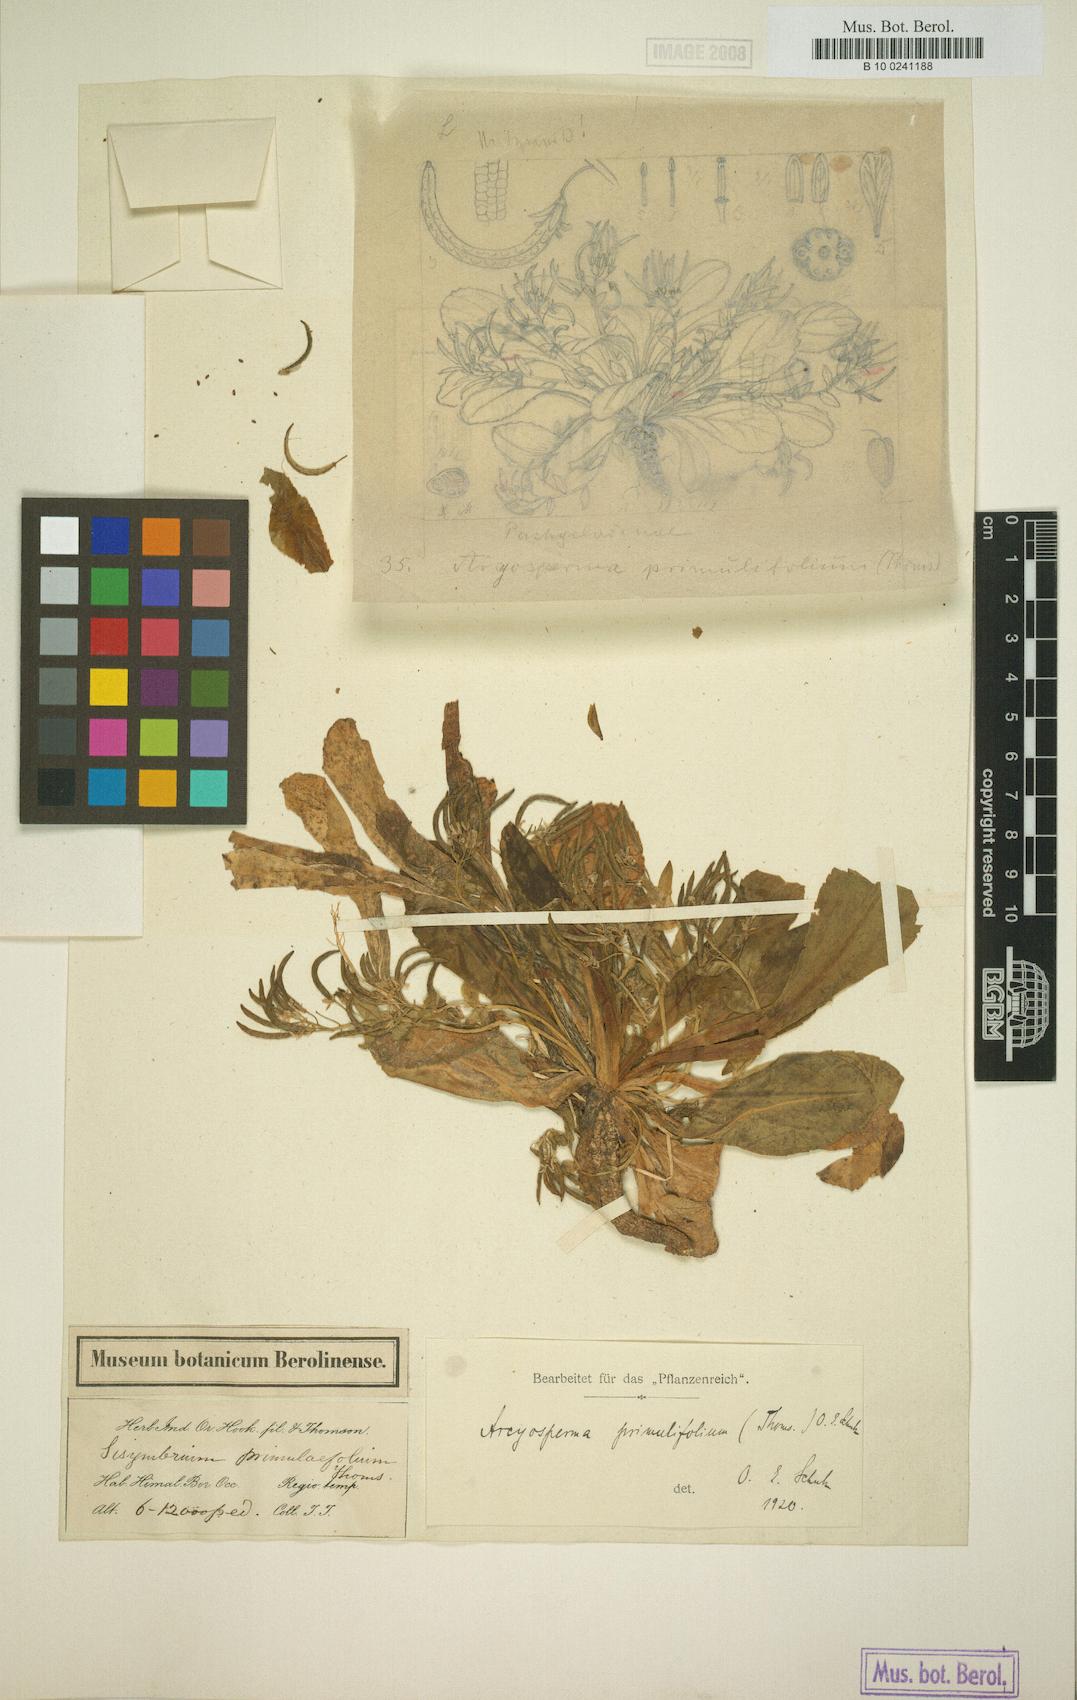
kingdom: Plantae
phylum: Tracheophyta
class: Magnoliopsida
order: Brassicales
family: Brassicaceae
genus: Arcyosperma
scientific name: Arcyosperma primulifolium
